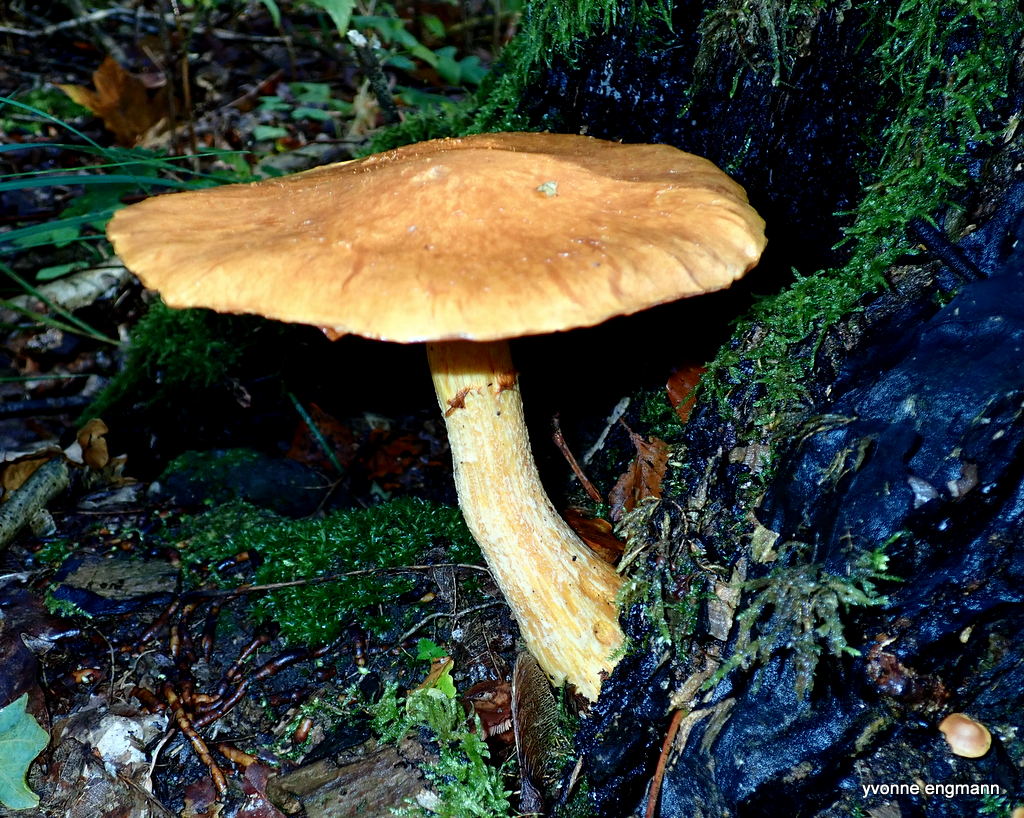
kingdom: Fungi
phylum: Basidiomycota
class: Agaricomycetes
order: Agaricales
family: Hymenogastraceae
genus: Gymnopilus
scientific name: Gymnopilus spectabilis
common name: fibret flammehat
